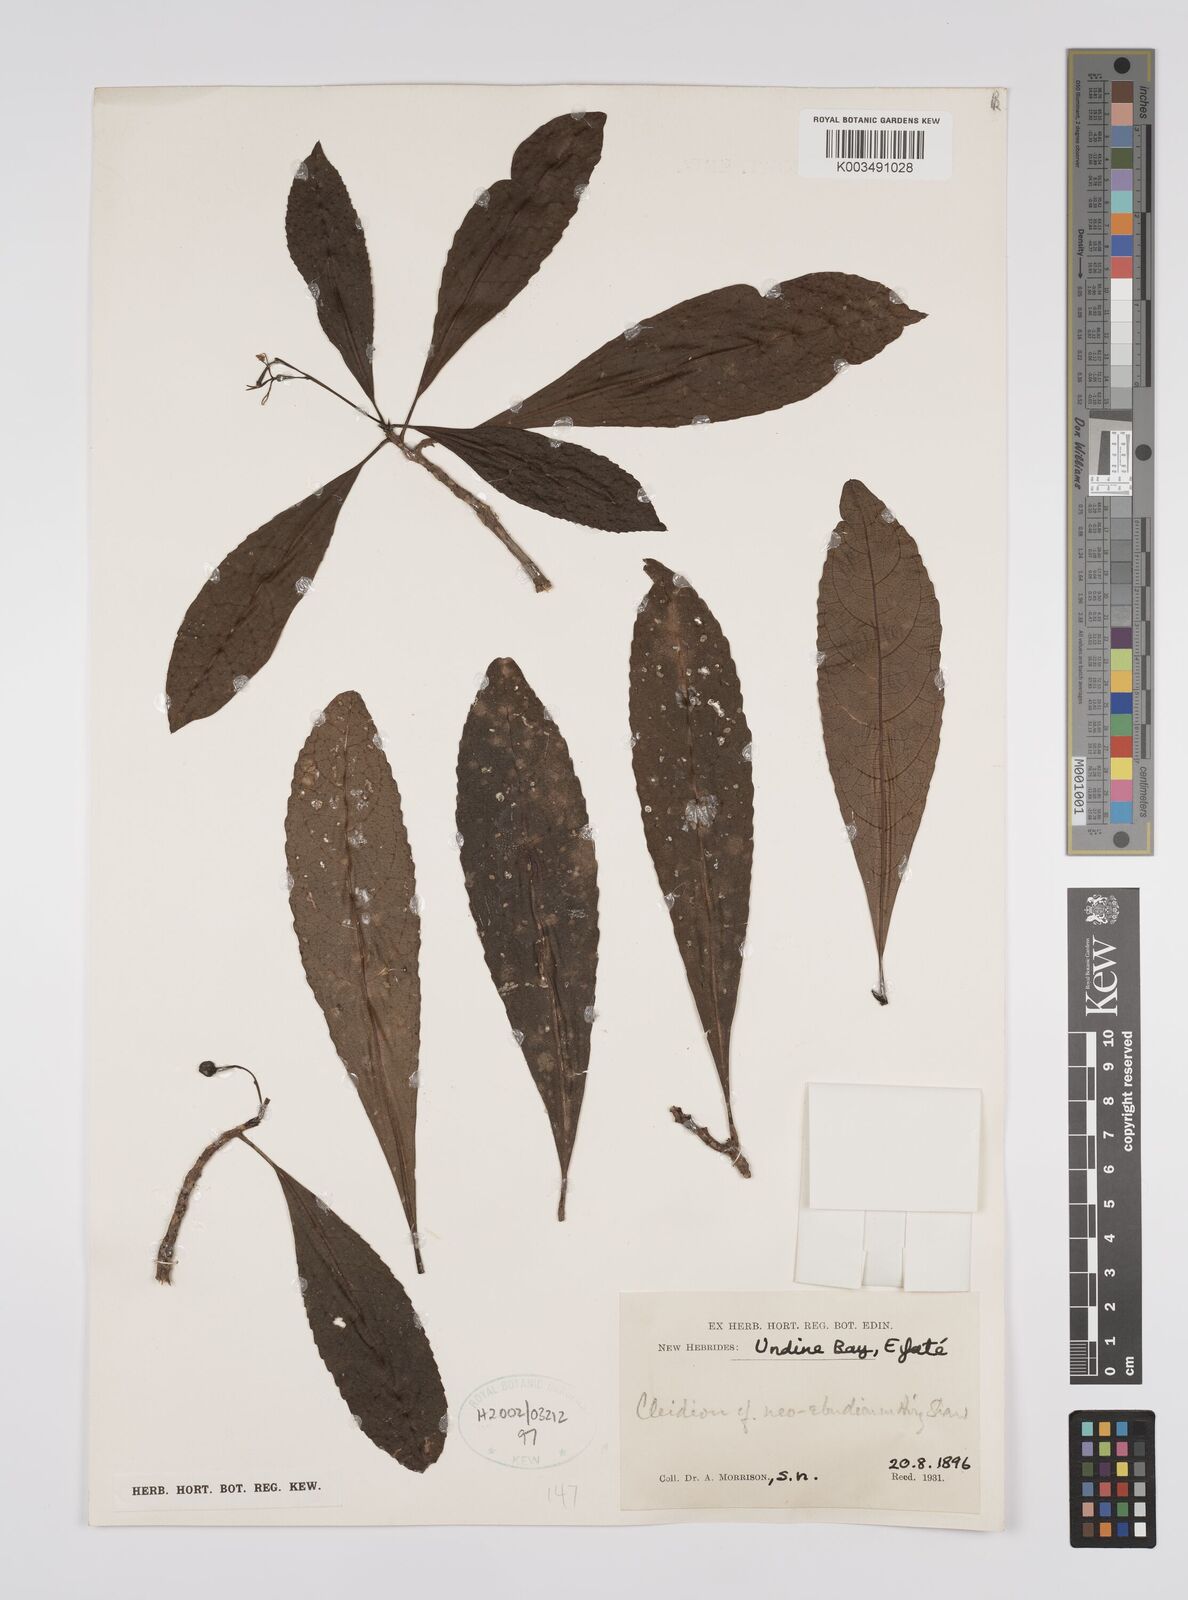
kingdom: Plantae
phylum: Tracheophyta
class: Magnoliopsida
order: Malpighiales
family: Euphorbiaceae
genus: Cleidion
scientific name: Cleidion neoebudicum
